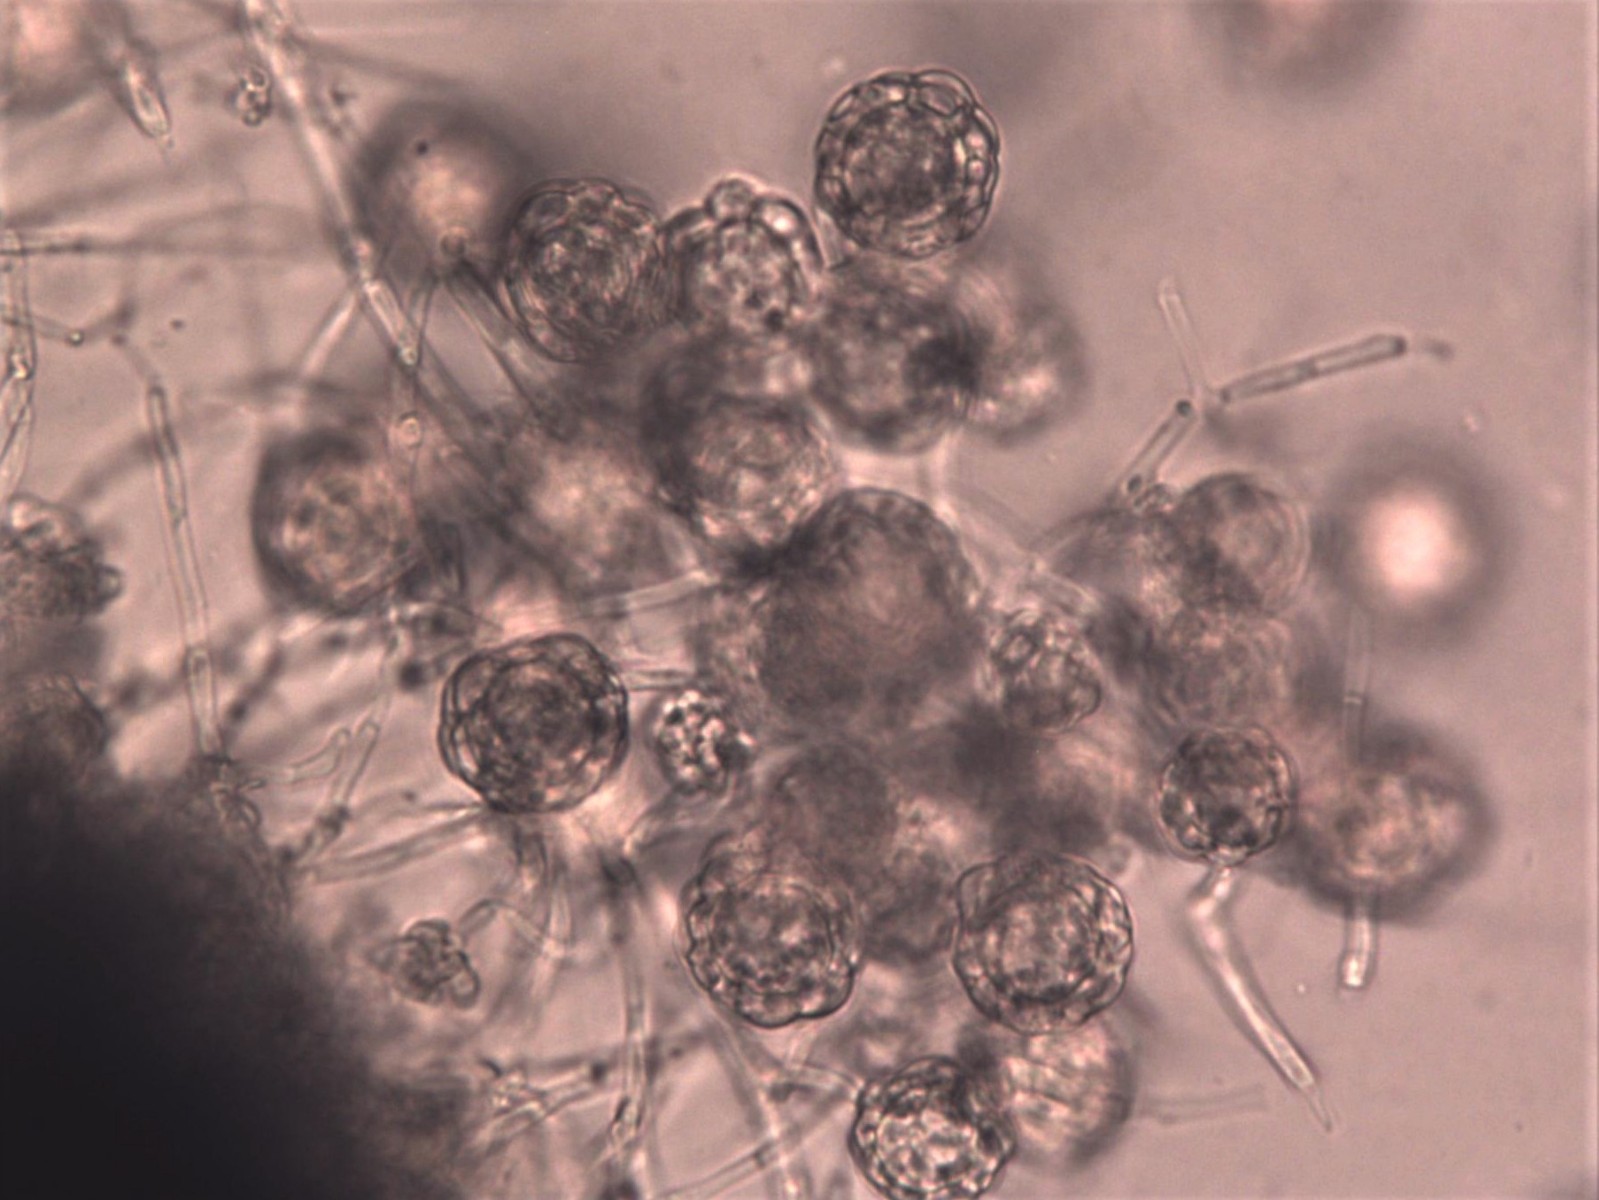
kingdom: Fungi
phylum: Ascomycota
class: Sordariomycetes
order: Hypocreales
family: Hypocreaceae
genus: Hypomyces
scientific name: Hypomyces papulasporae
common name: jordtunge-snylteskorpe
